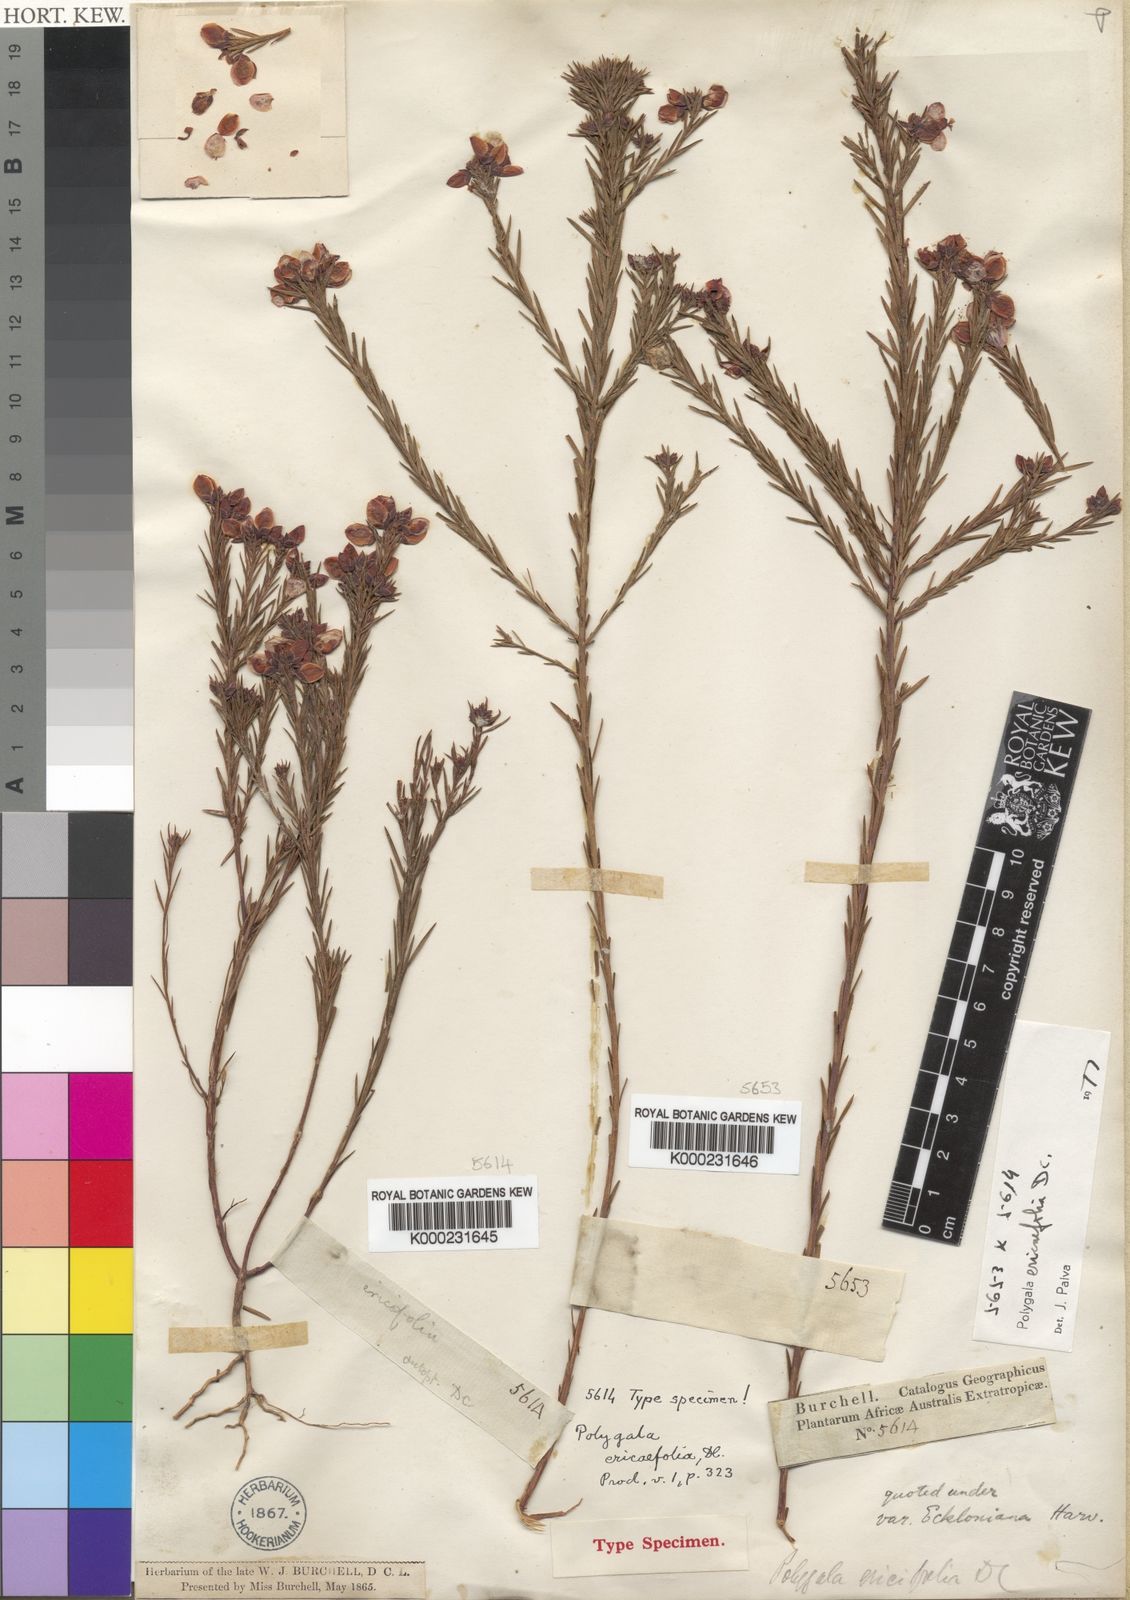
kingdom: Plantae
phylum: Tracheophyta
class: Magnoliopsida
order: Fabales
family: Polygalaceae
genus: Polygala
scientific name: Polygala ericifolia
